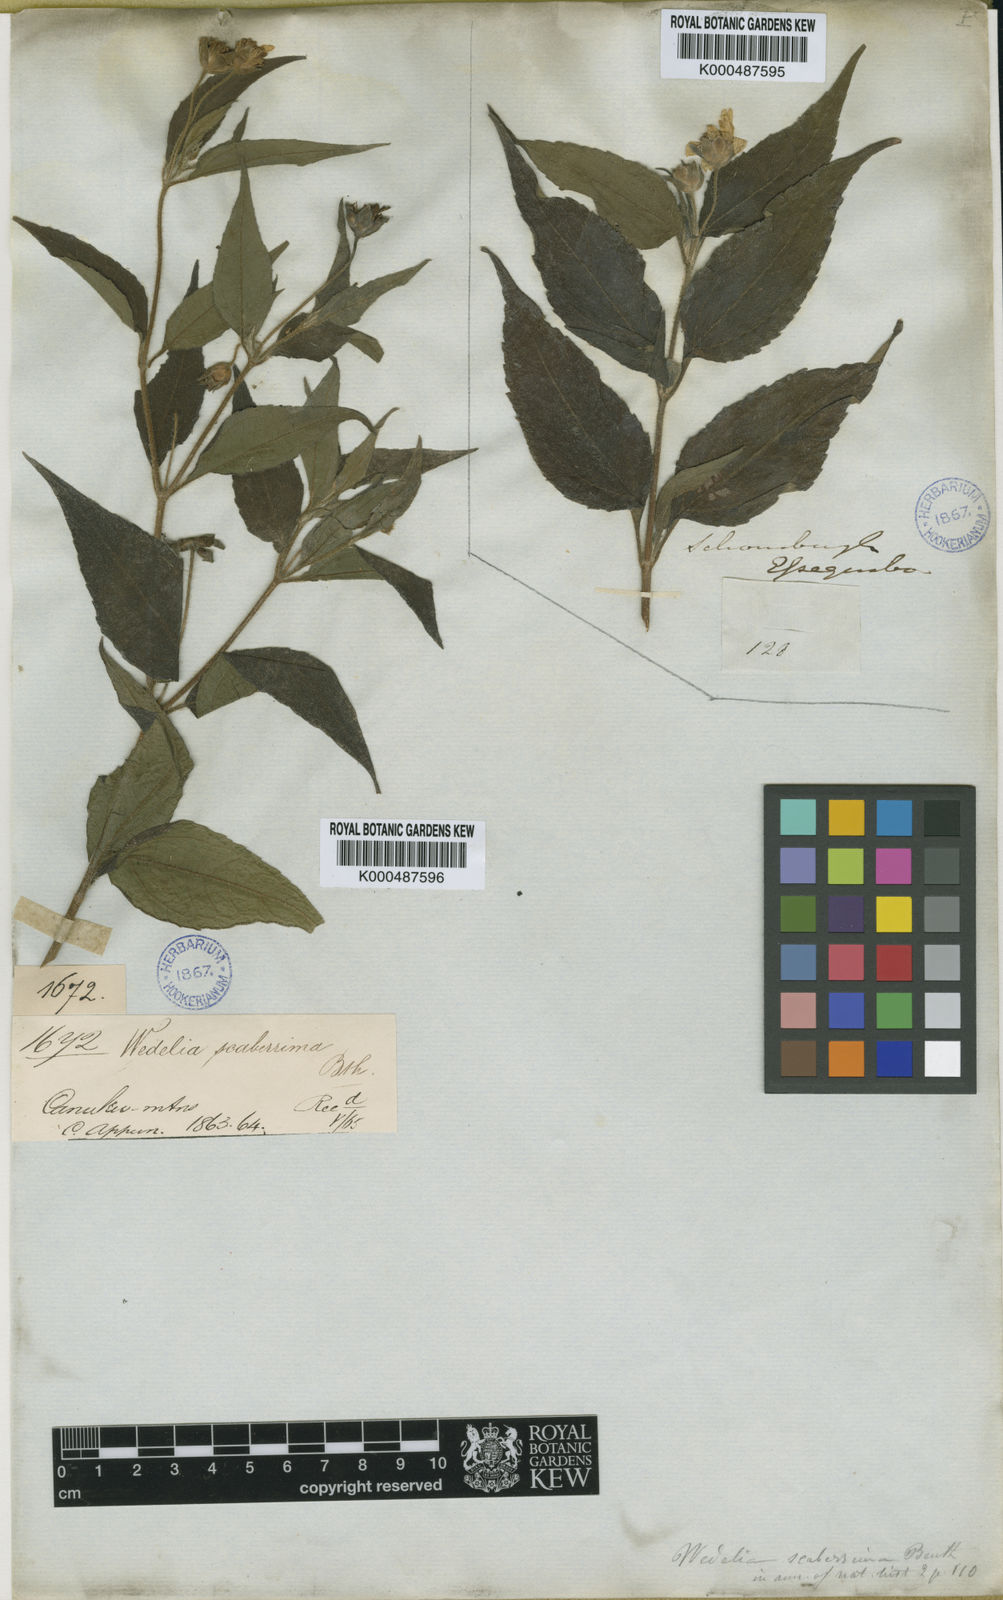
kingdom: Plantae
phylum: Tracheophyta
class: Magnoliopsida
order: Asterales
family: Asteraceae
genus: Wedelia
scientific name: Wedelia calycina
